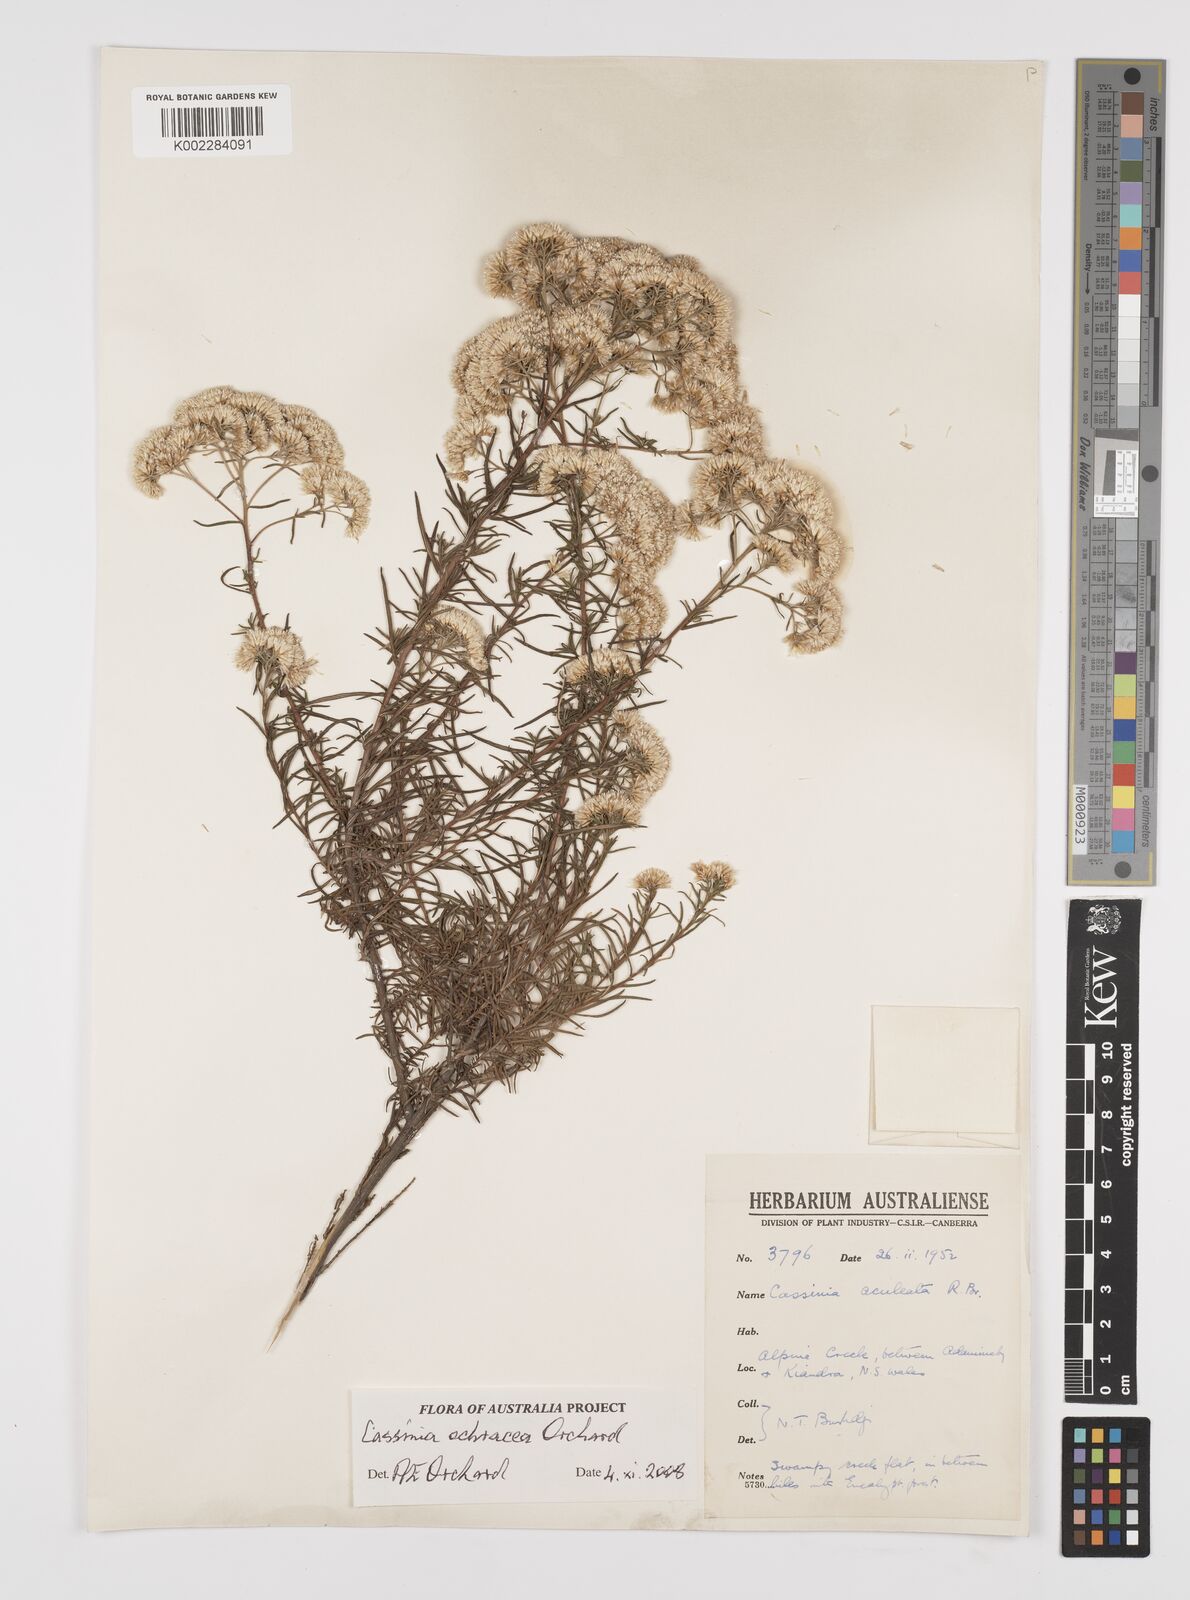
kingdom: Plantae
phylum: Tracheophyta
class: Magnoliopsida
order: Asterales
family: Asteraceae
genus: Cassinia
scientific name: Cassinia ochracea
